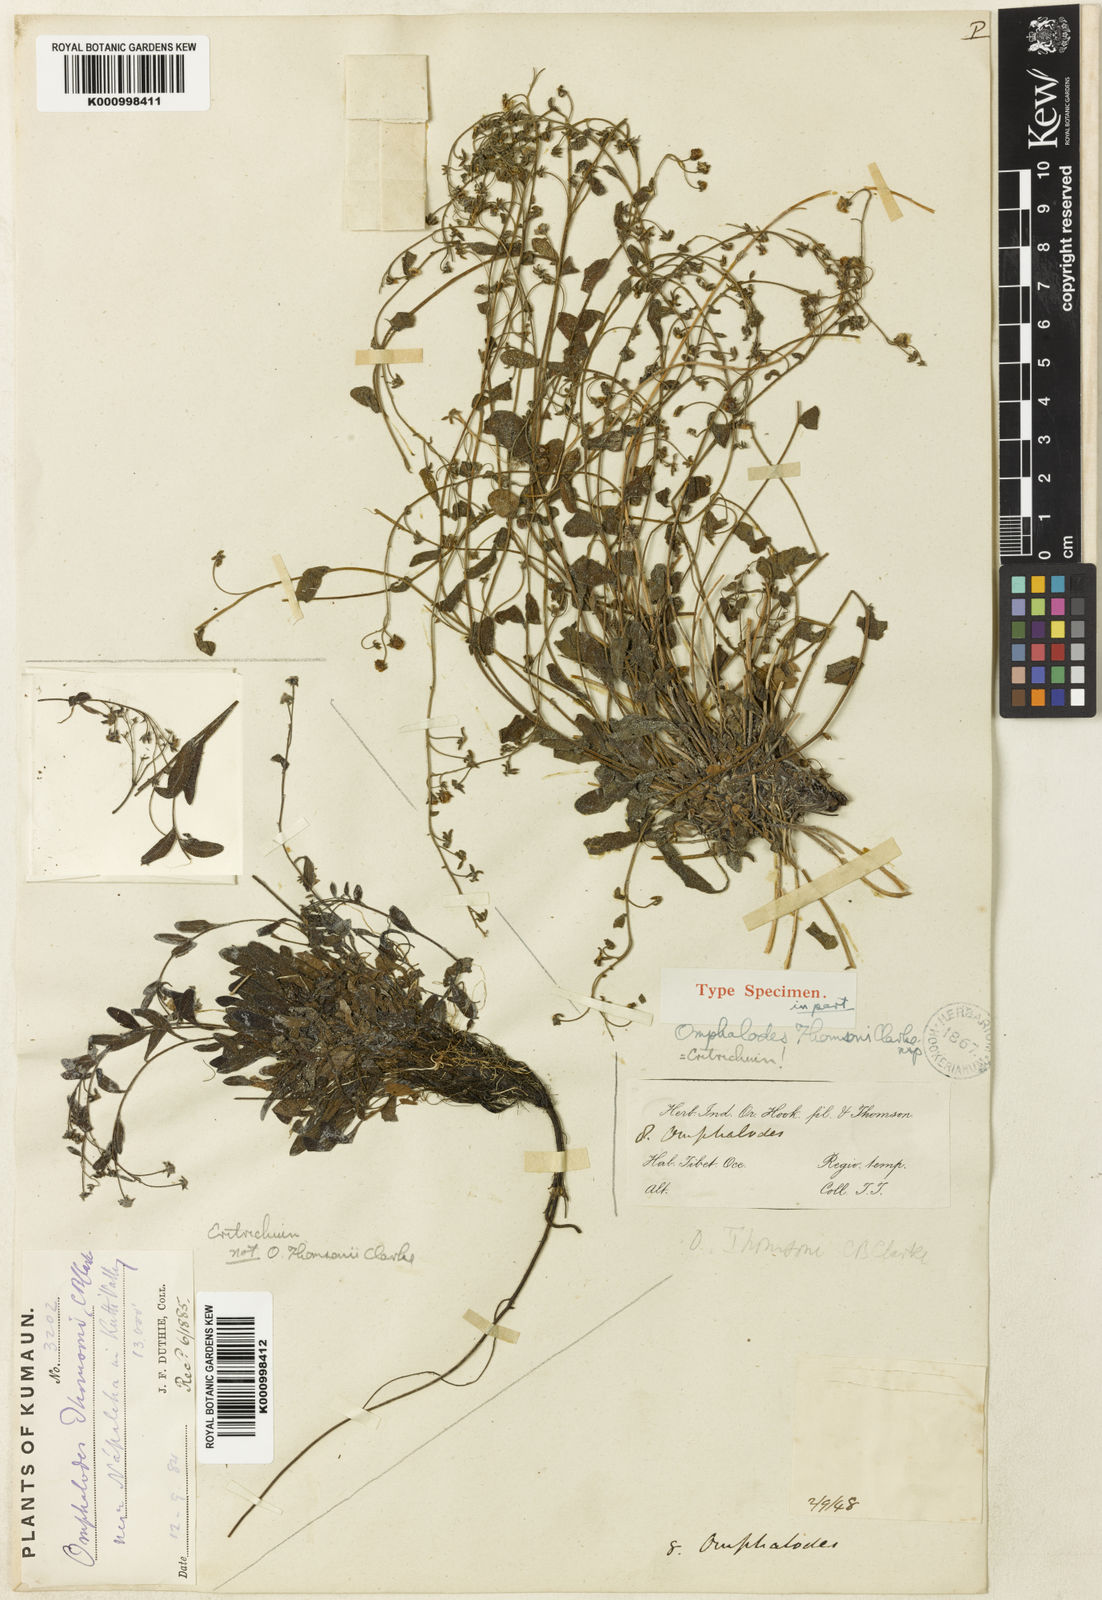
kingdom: Plantae
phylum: Tracheophyta
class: Magnoliopsida
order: Boraginales
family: Boraginaceae
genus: Eritrichium
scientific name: Eritrichium thomsonii
